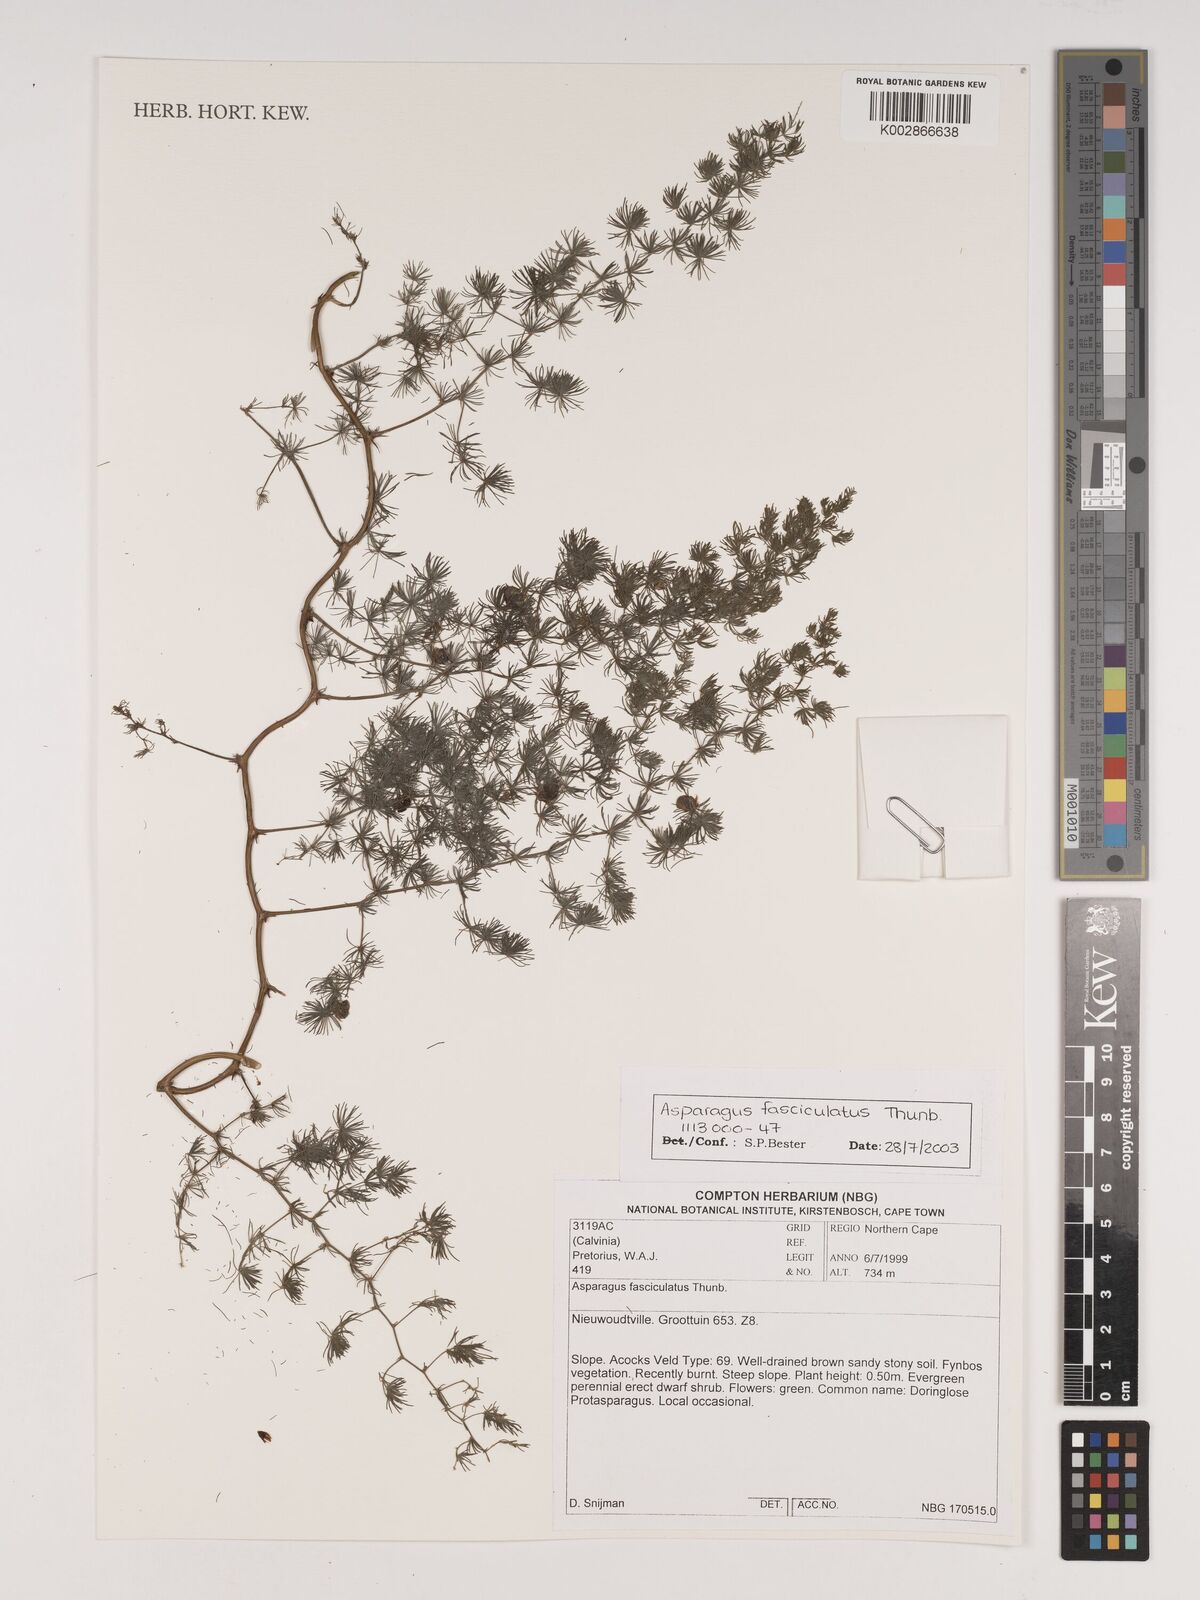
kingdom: Plantae
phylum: Tracheophyta
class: Liliopsida
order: Asparagales
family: Asparagaceae
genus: Asparagus
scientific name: Asparagus fasciculatus
